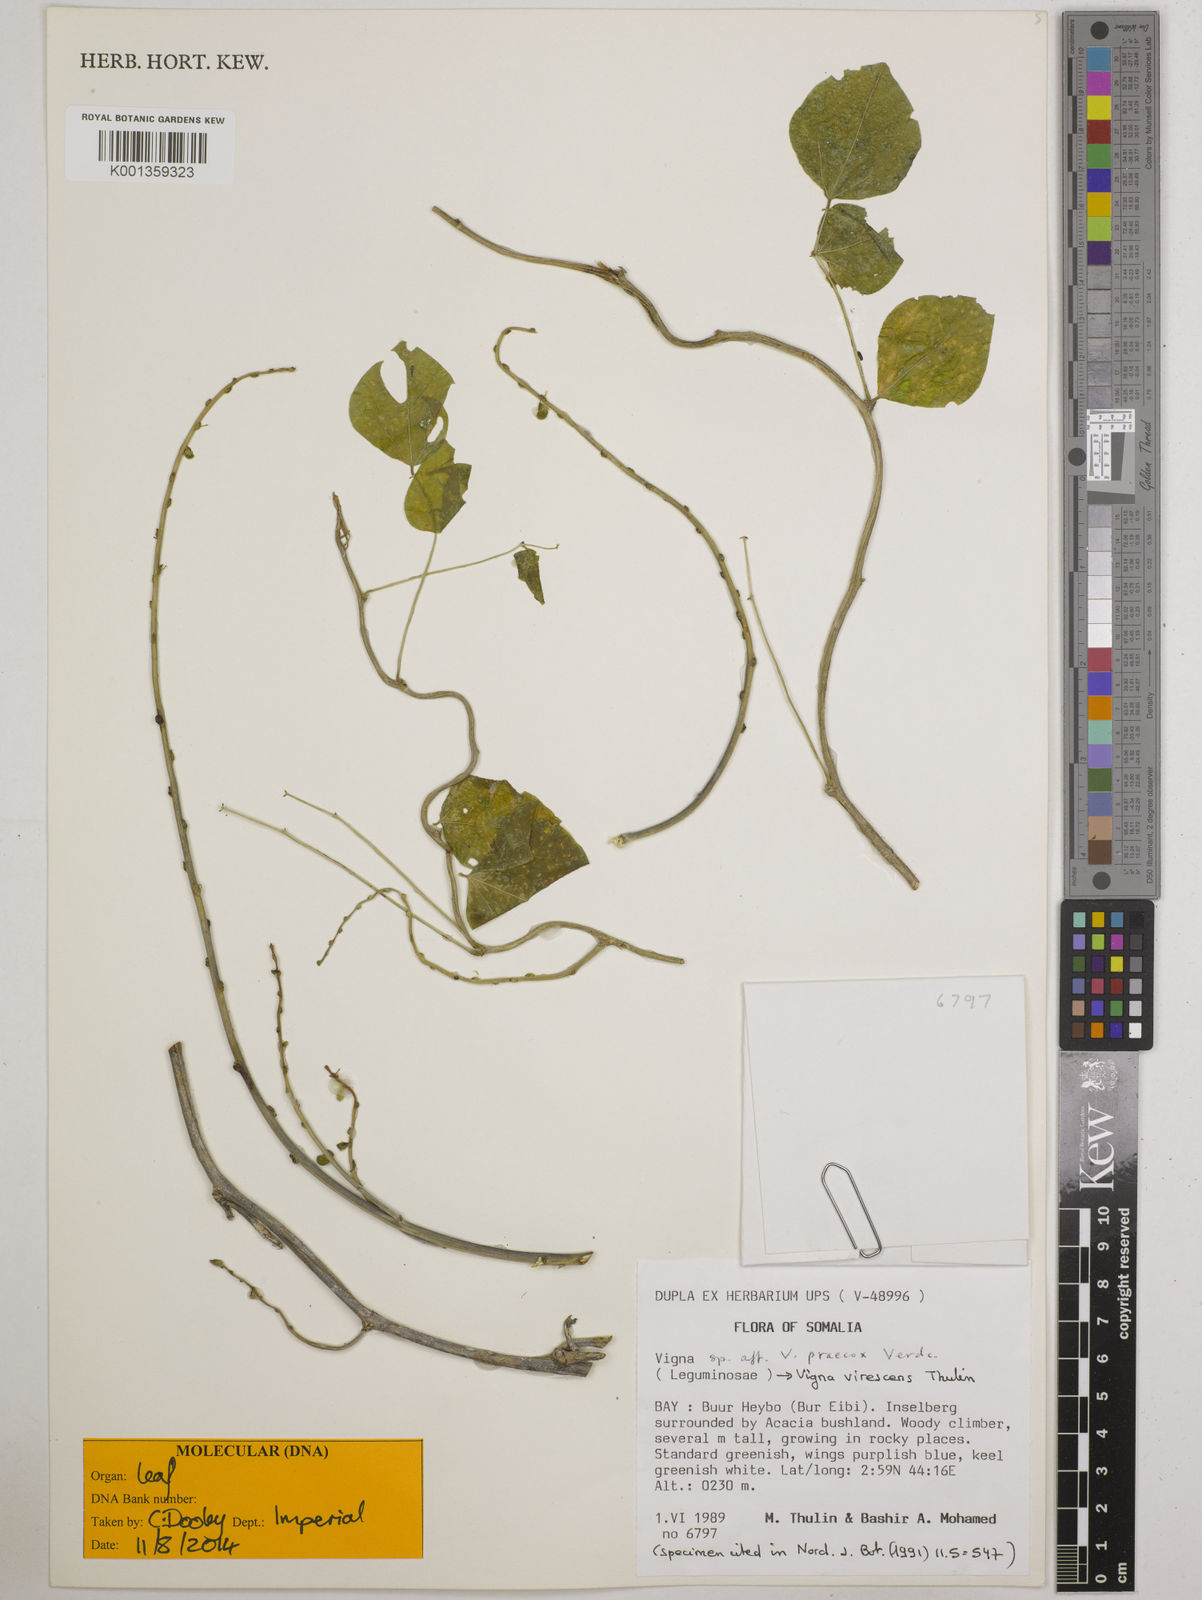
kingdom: Plantae
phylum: Tracheophyta
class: Magnoliopsida
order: Fabales
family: Fabaceae
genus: Wajira
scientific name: Wajira virescens
